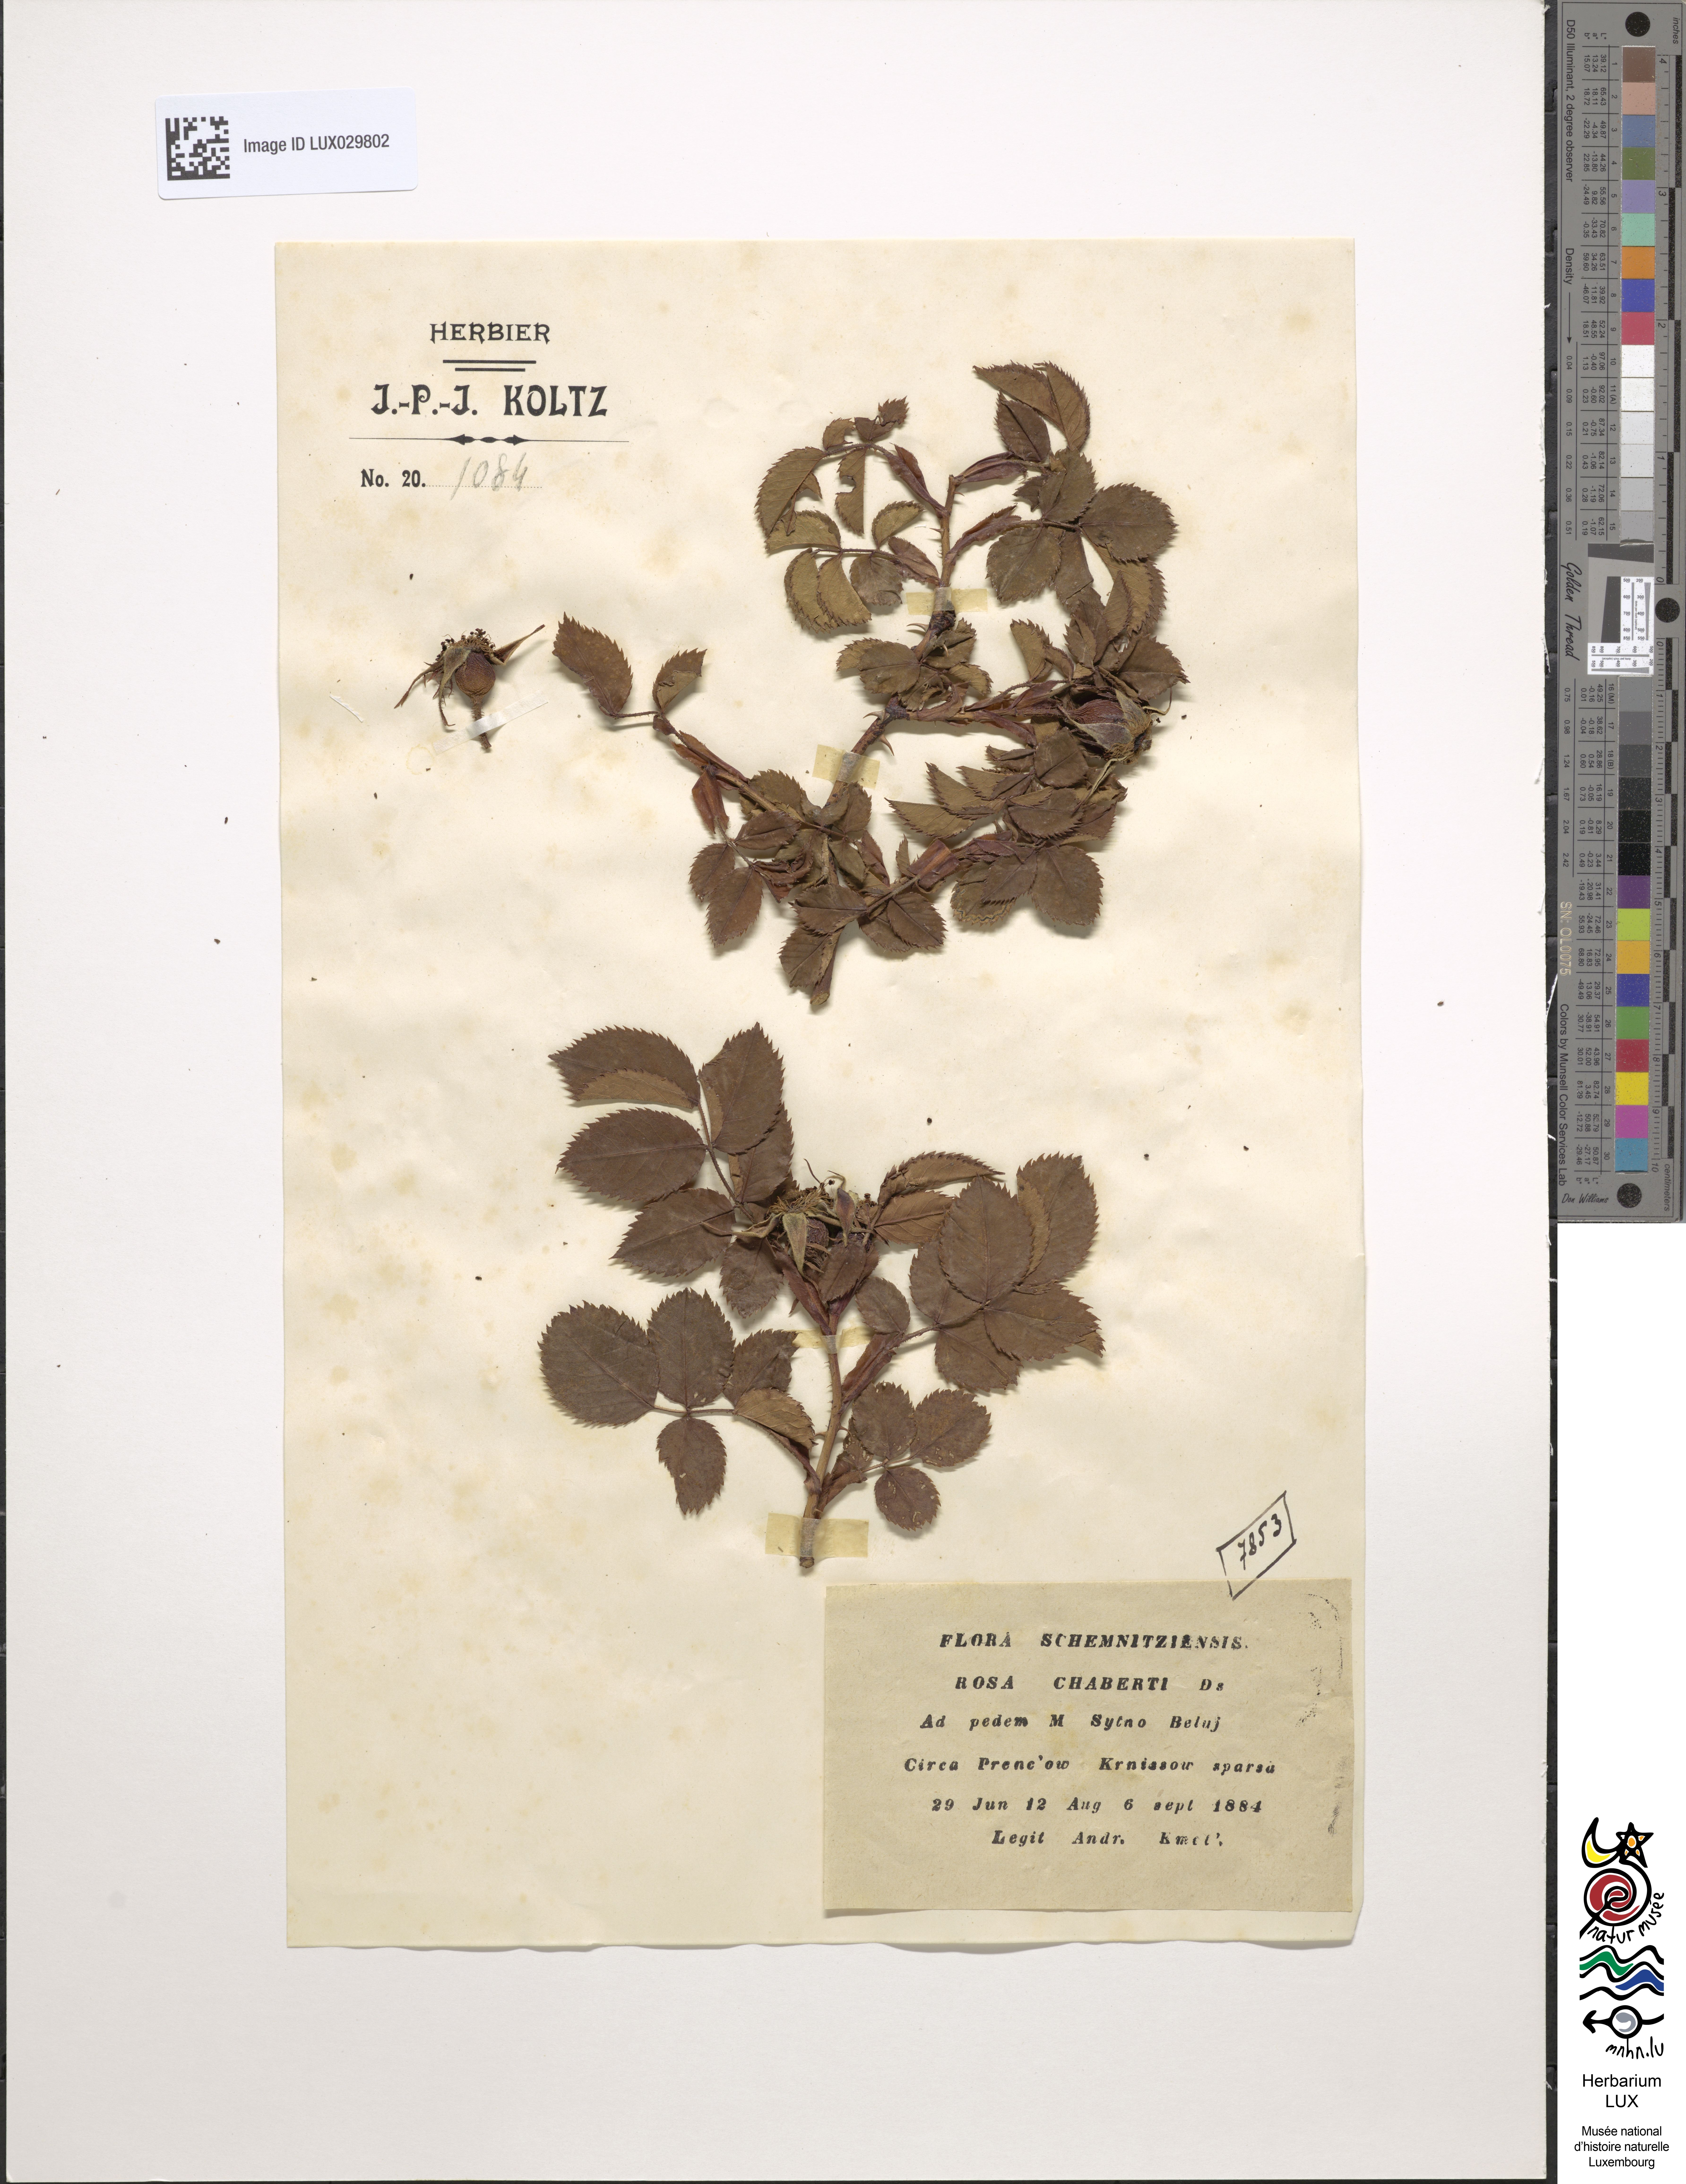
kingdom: Plantae
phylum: Tracheophyta
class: Magnoliopsida
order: Rosales
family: Rosaceae
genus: Rosa
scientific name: Rosa chabertii
